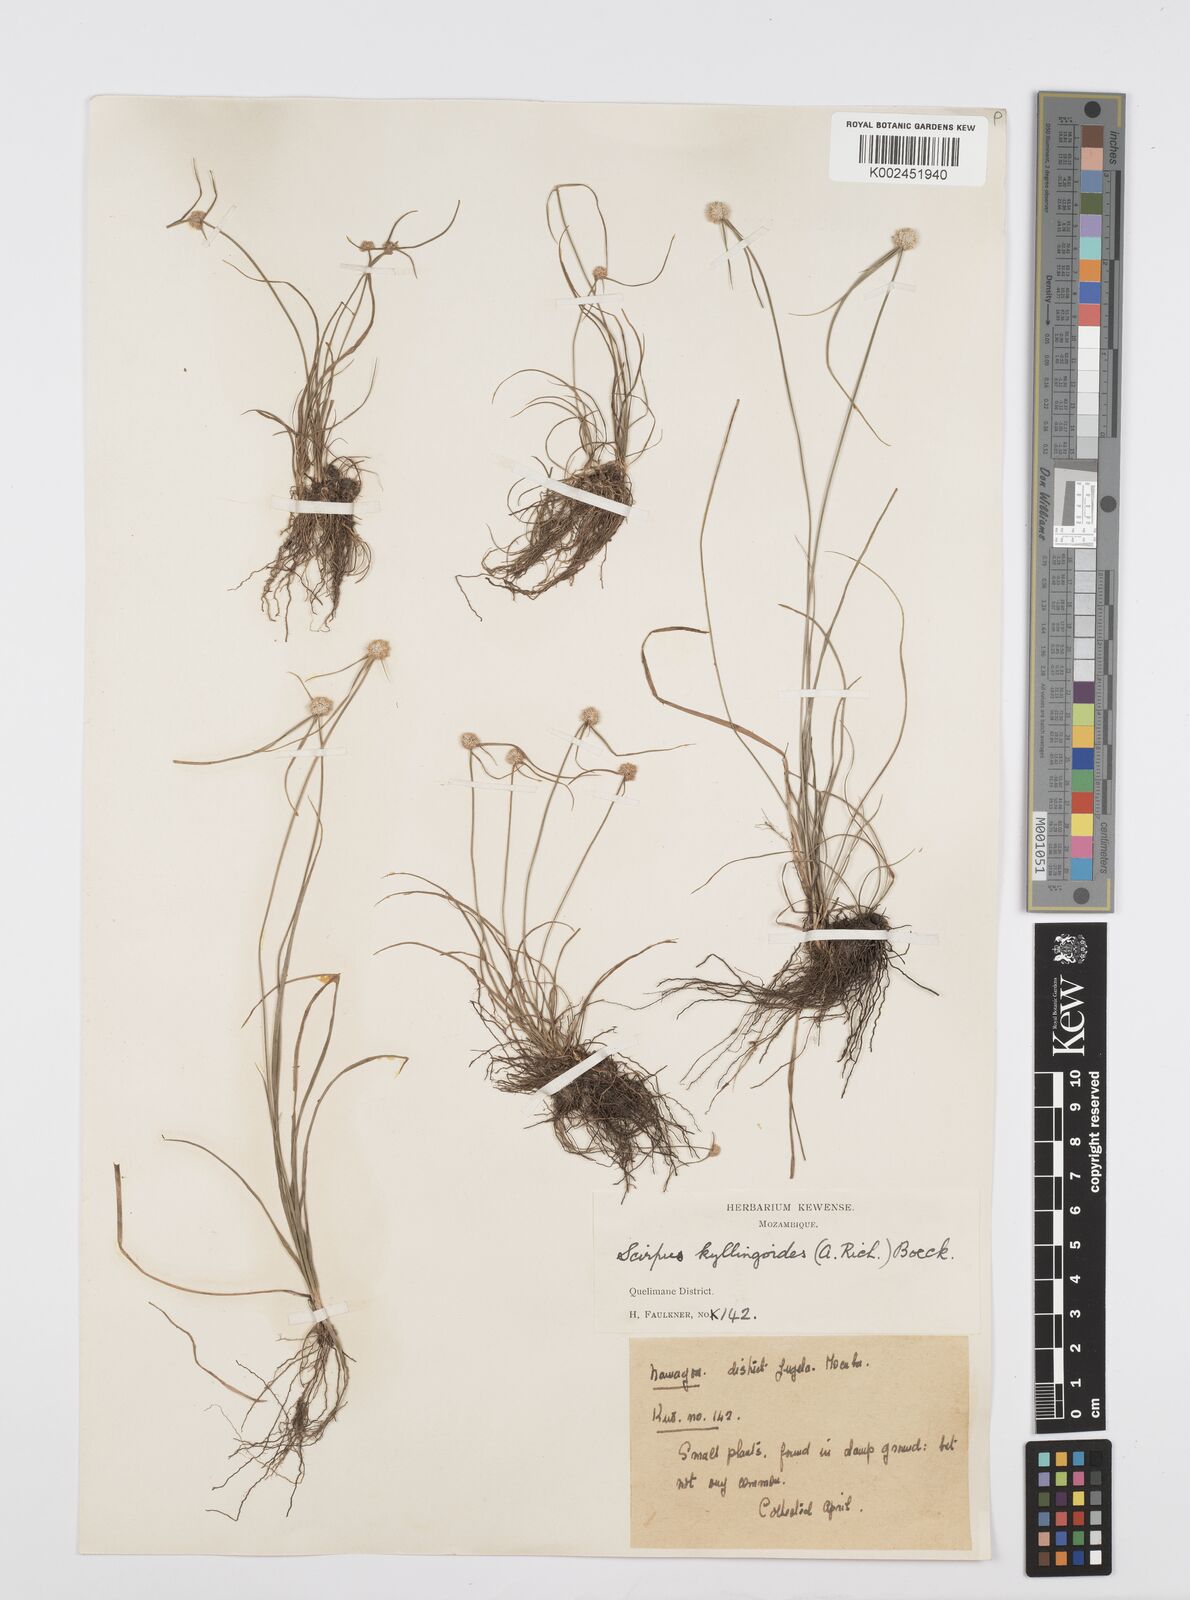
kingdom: Plantae
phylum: Tracheophyta
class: Liliopsida
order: Poales
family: Cyperaceae
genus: Cyperus
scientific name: Cyperus microcephalus
